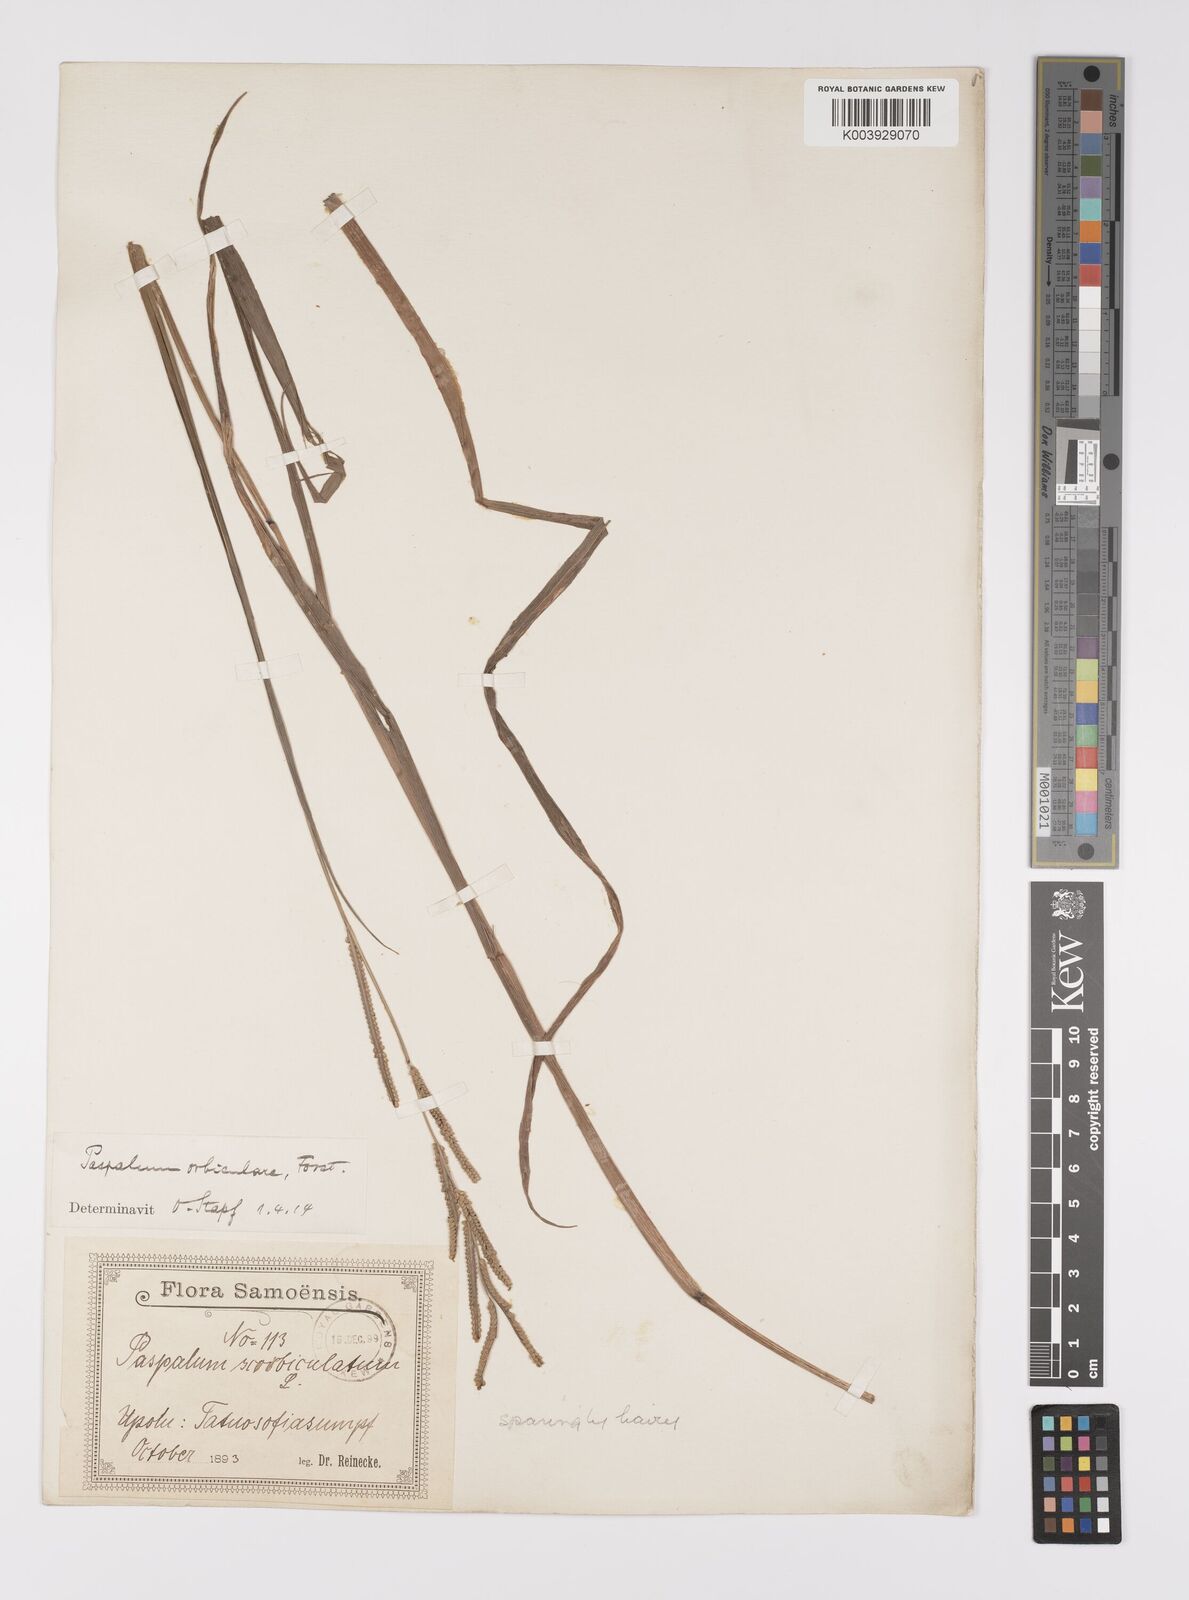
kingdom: Plantae
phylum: Tracheophyta
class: Liliopsida
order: Poales
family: Poaceae
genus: Paspalum
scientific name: Paspalum scrobiculatum
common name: Kodo millet
